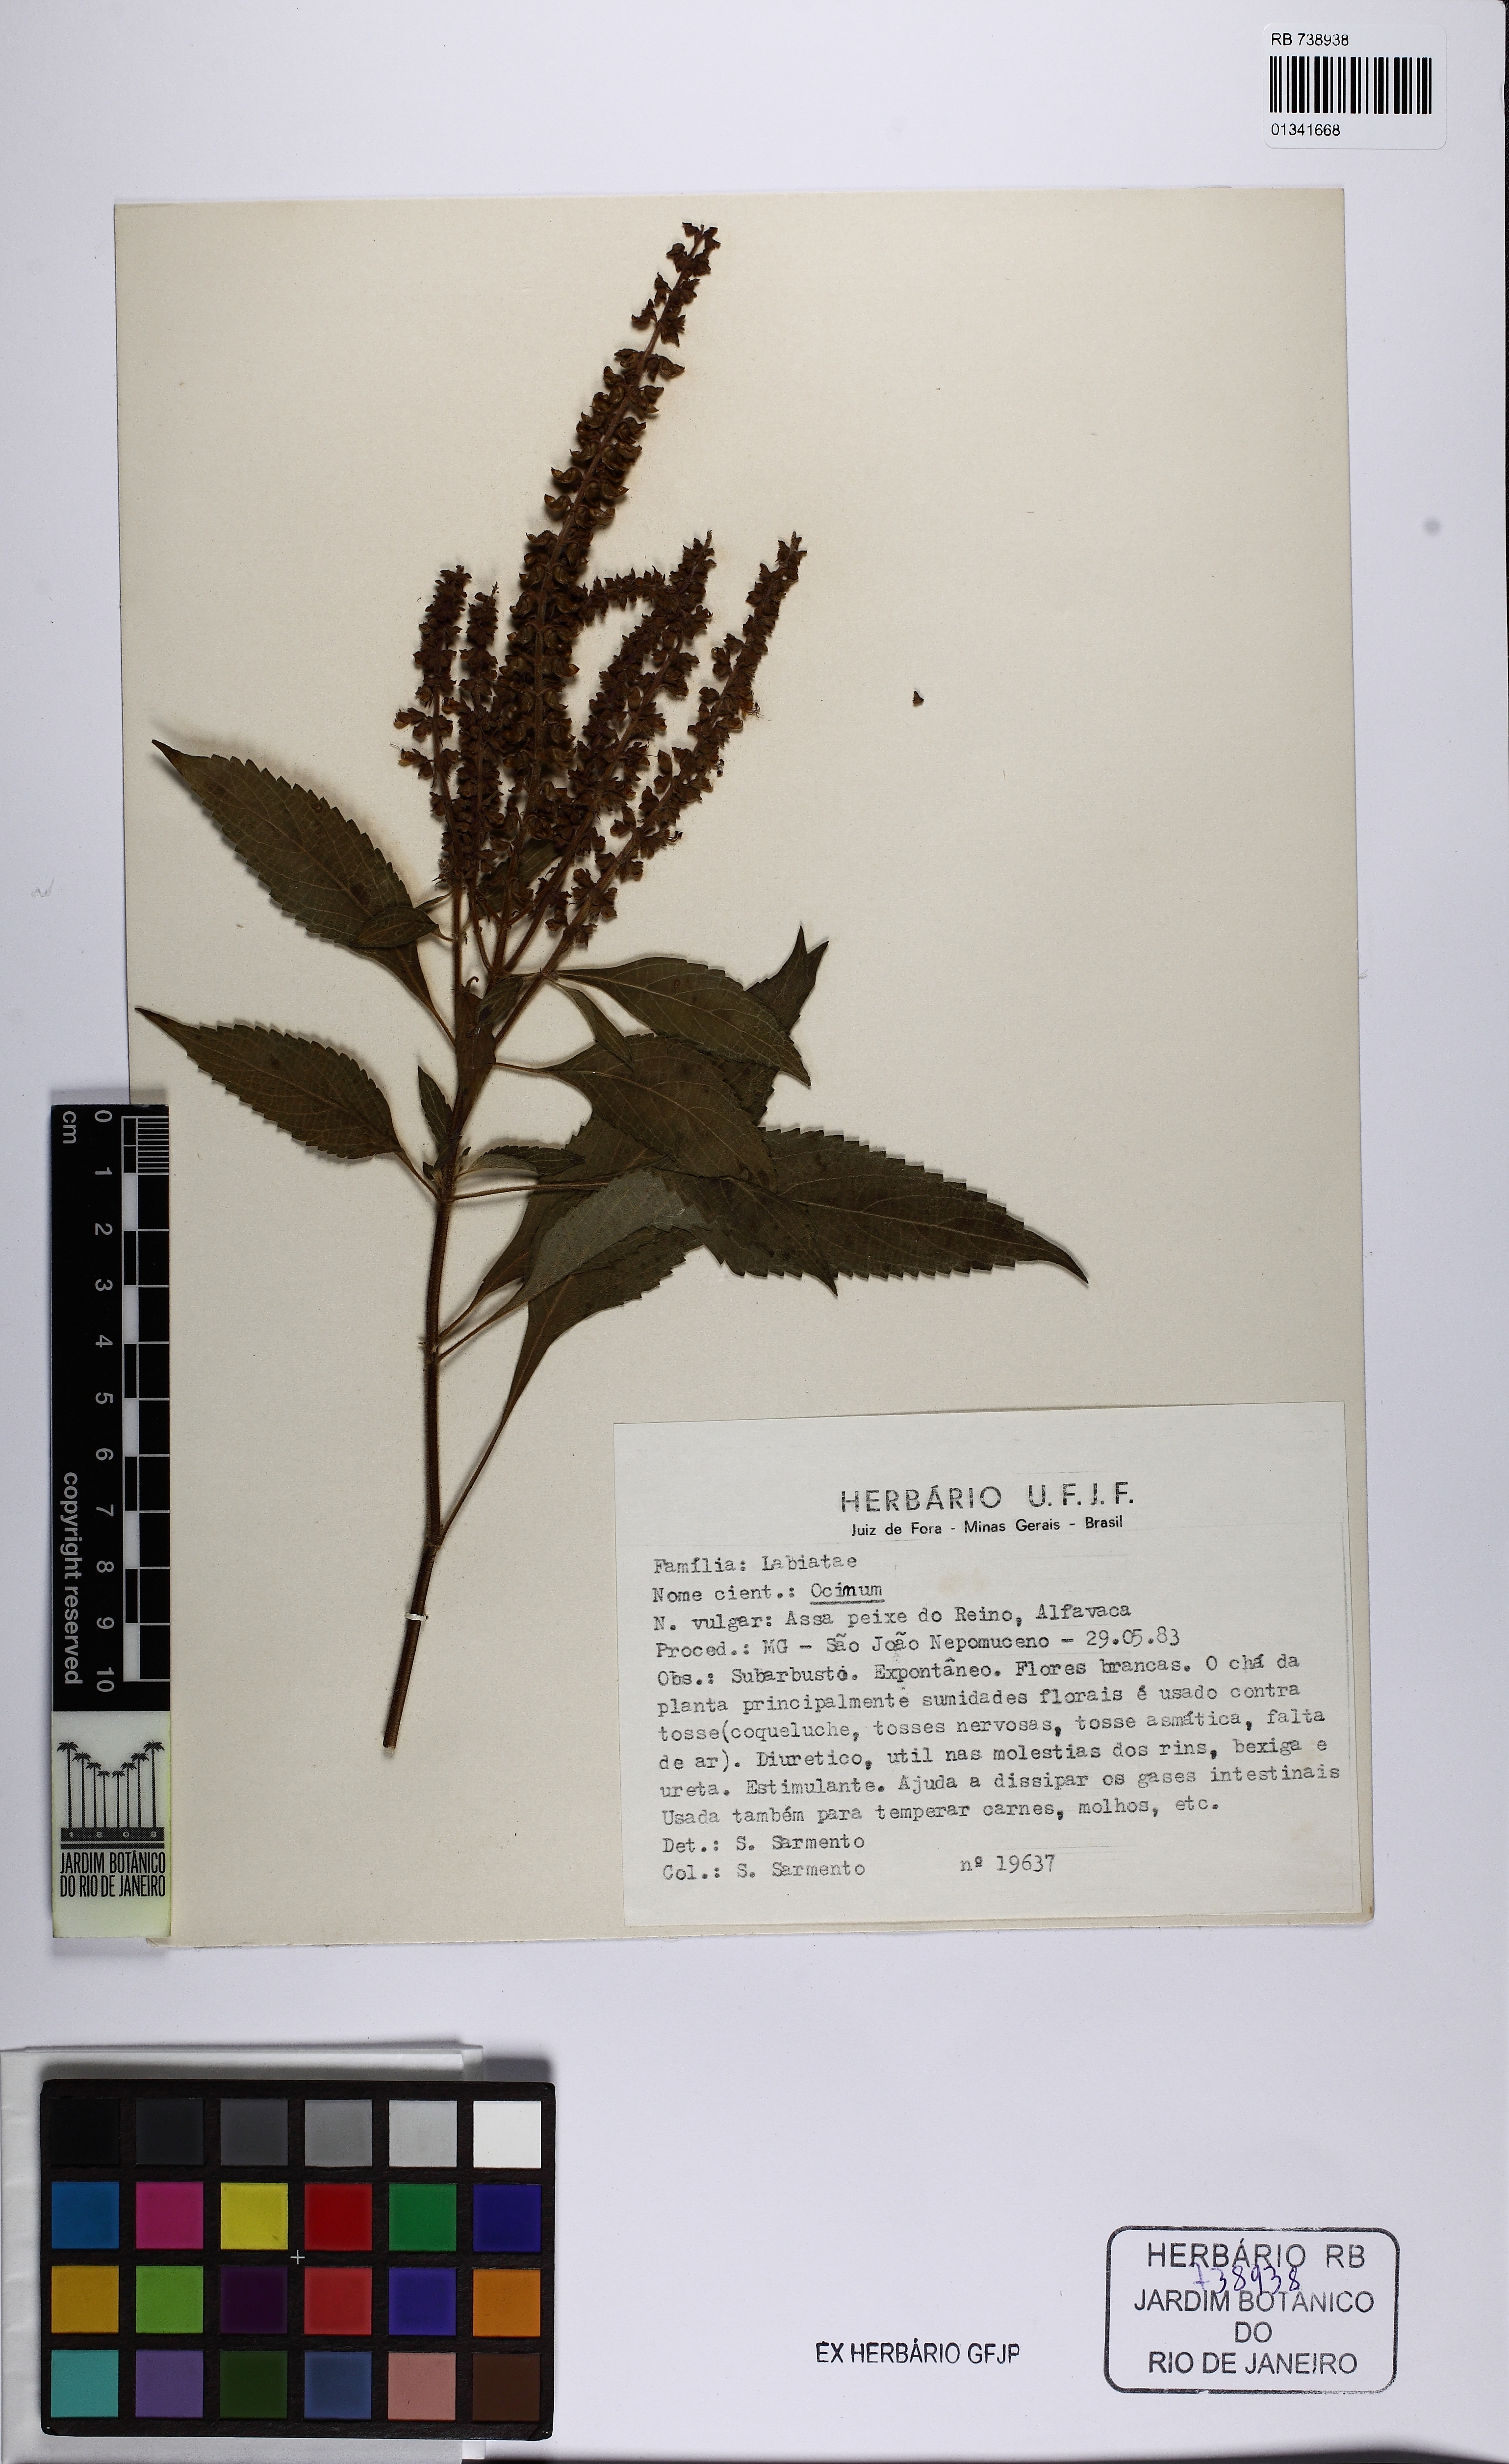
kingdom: Plantae
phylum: Tracheophyta
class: Magnoliopsida
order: Lamiales
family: Lamiaceae
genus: Ocimum
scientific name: Ocimum
